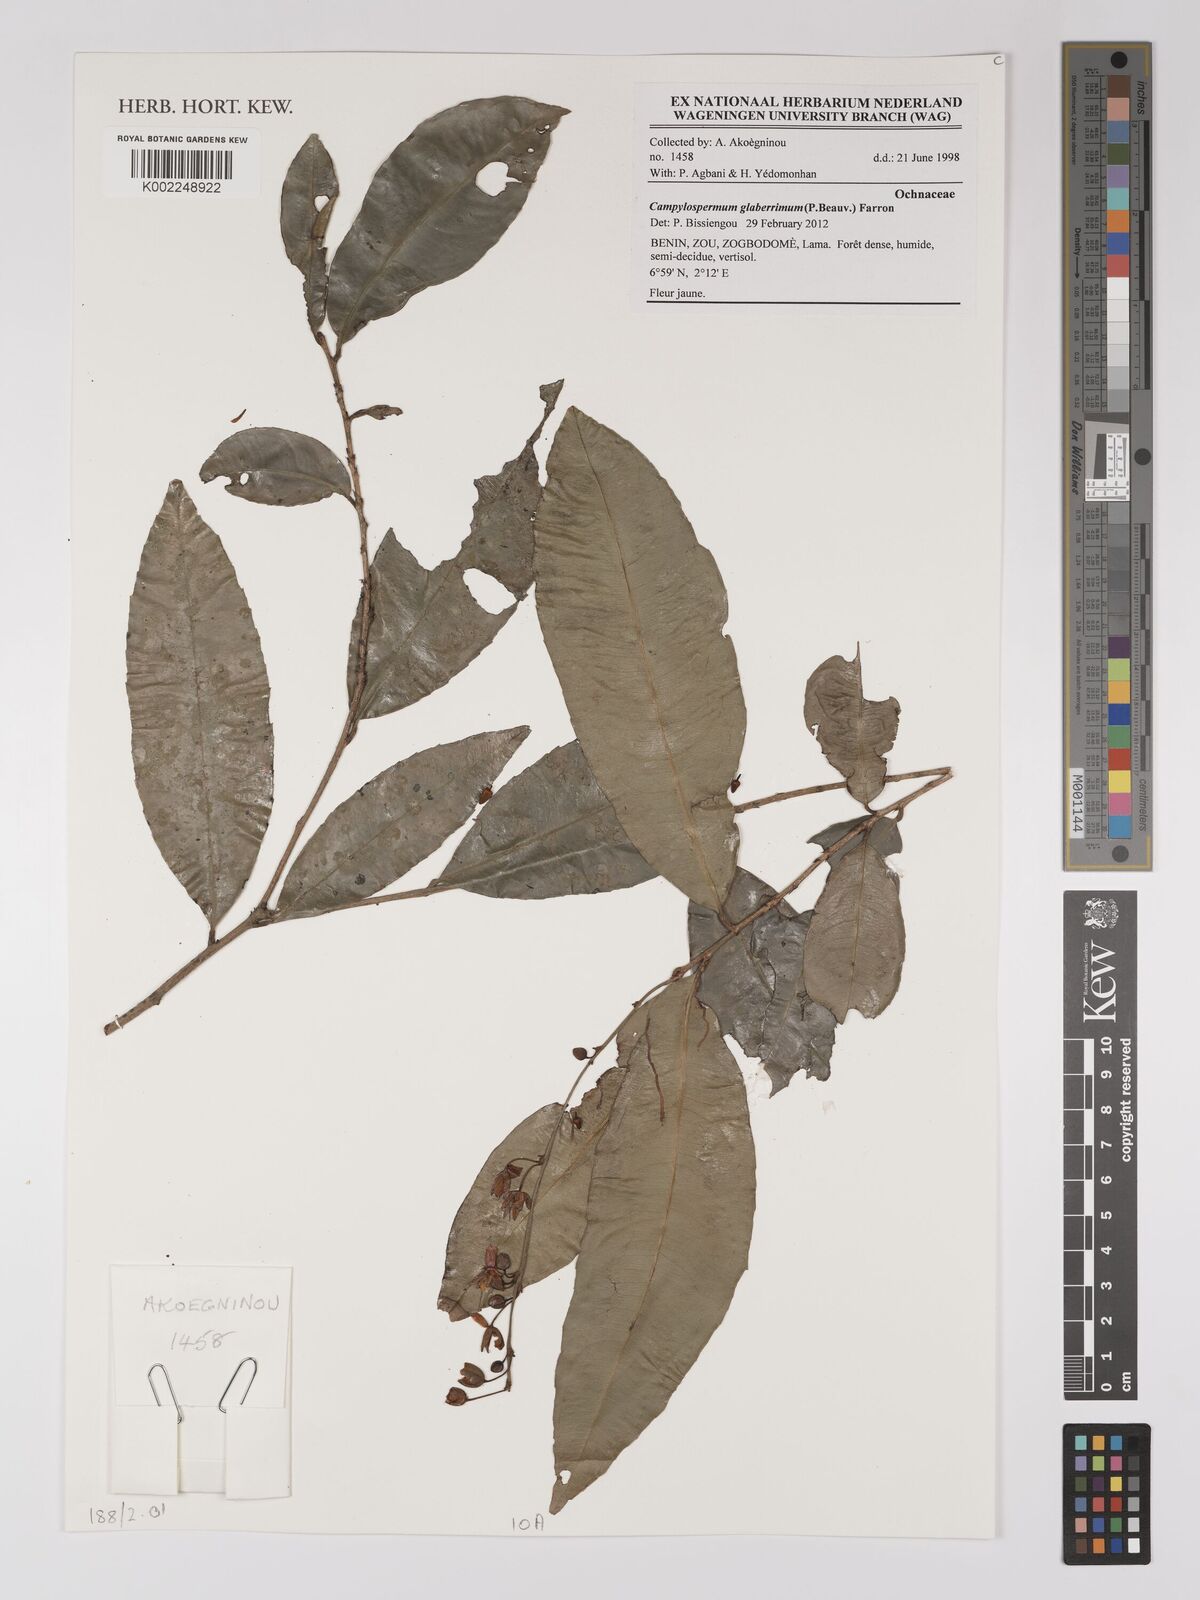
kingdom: Plantae
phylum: Tracheophyta
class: Magnoliopsida
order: Malpighiales
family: Ochnaceae
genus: Campylospermum
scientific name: Campylospermum glaberrimum
